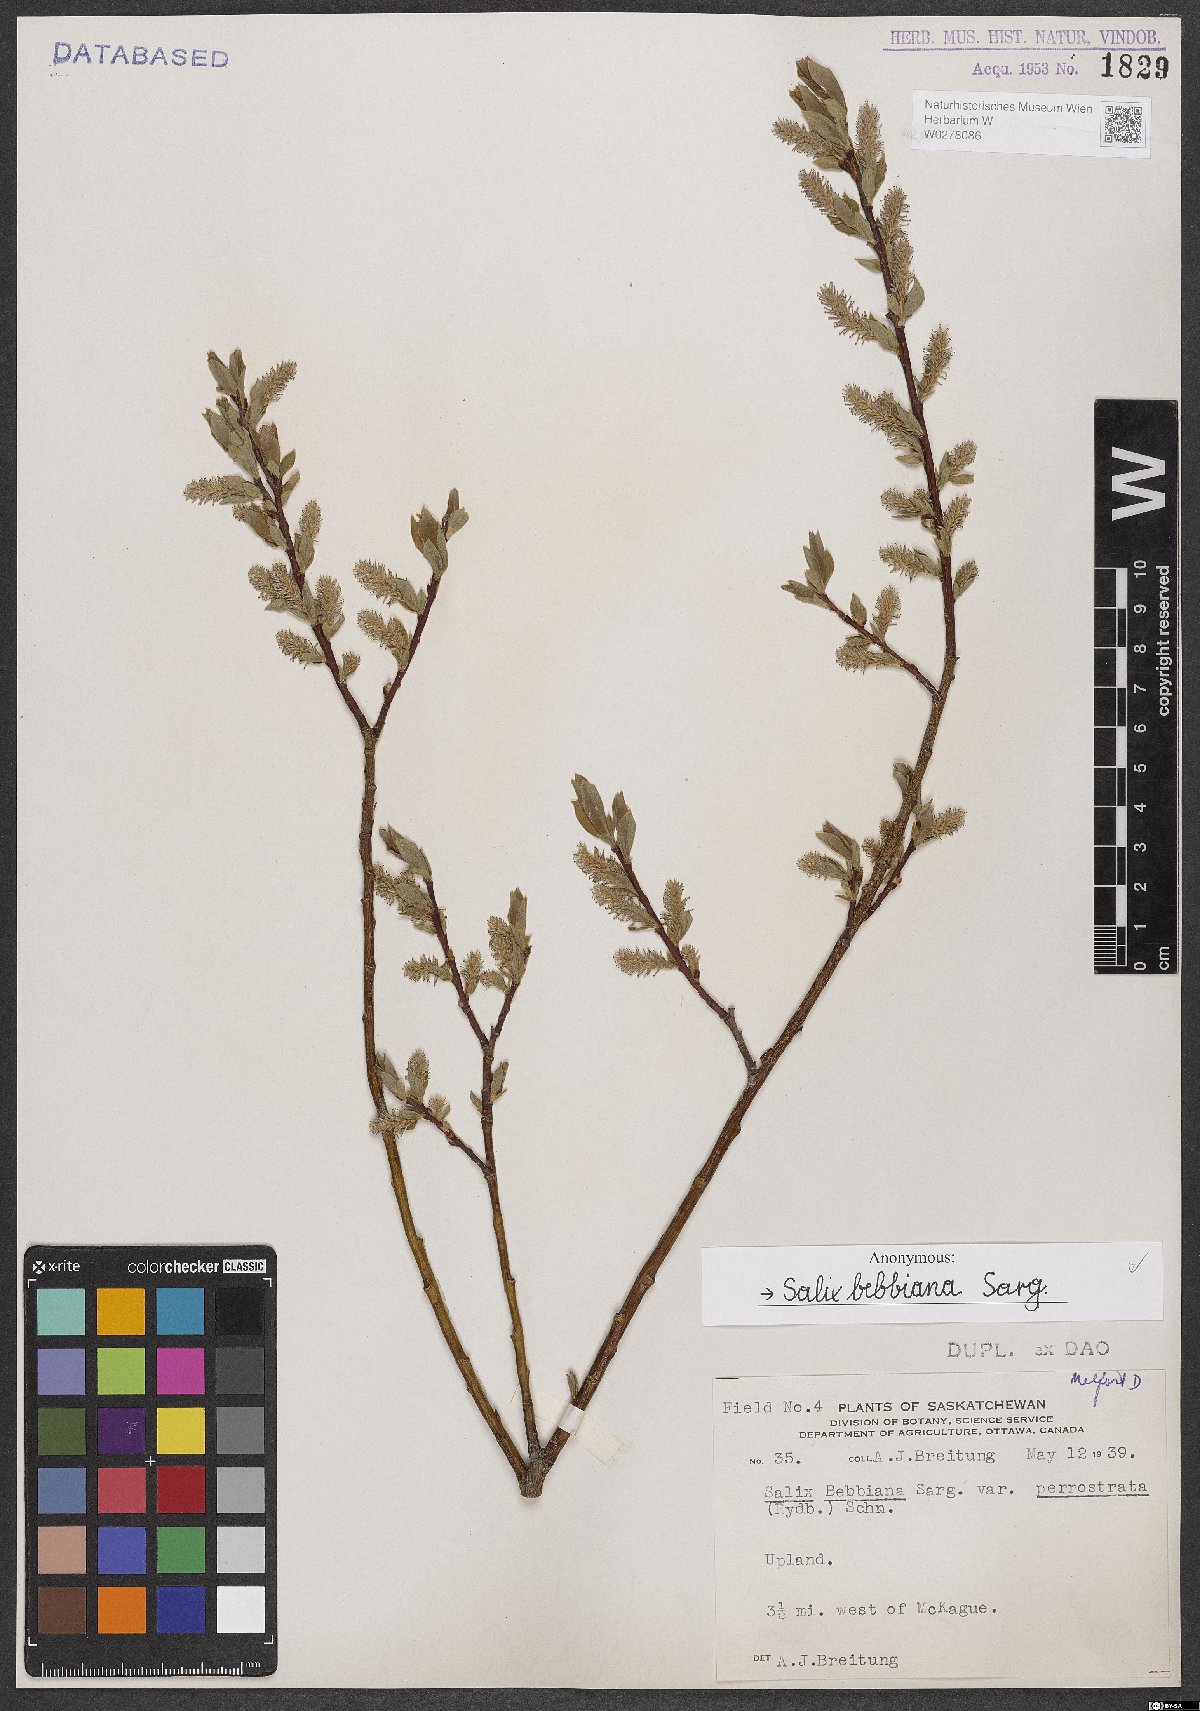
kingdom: Plantae
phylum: Tracheophyta
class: Magnoliopsida
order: Malpighiales
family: Salicaceae
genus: Salix
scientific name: Salix bebbiana
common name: Bebb's willow
